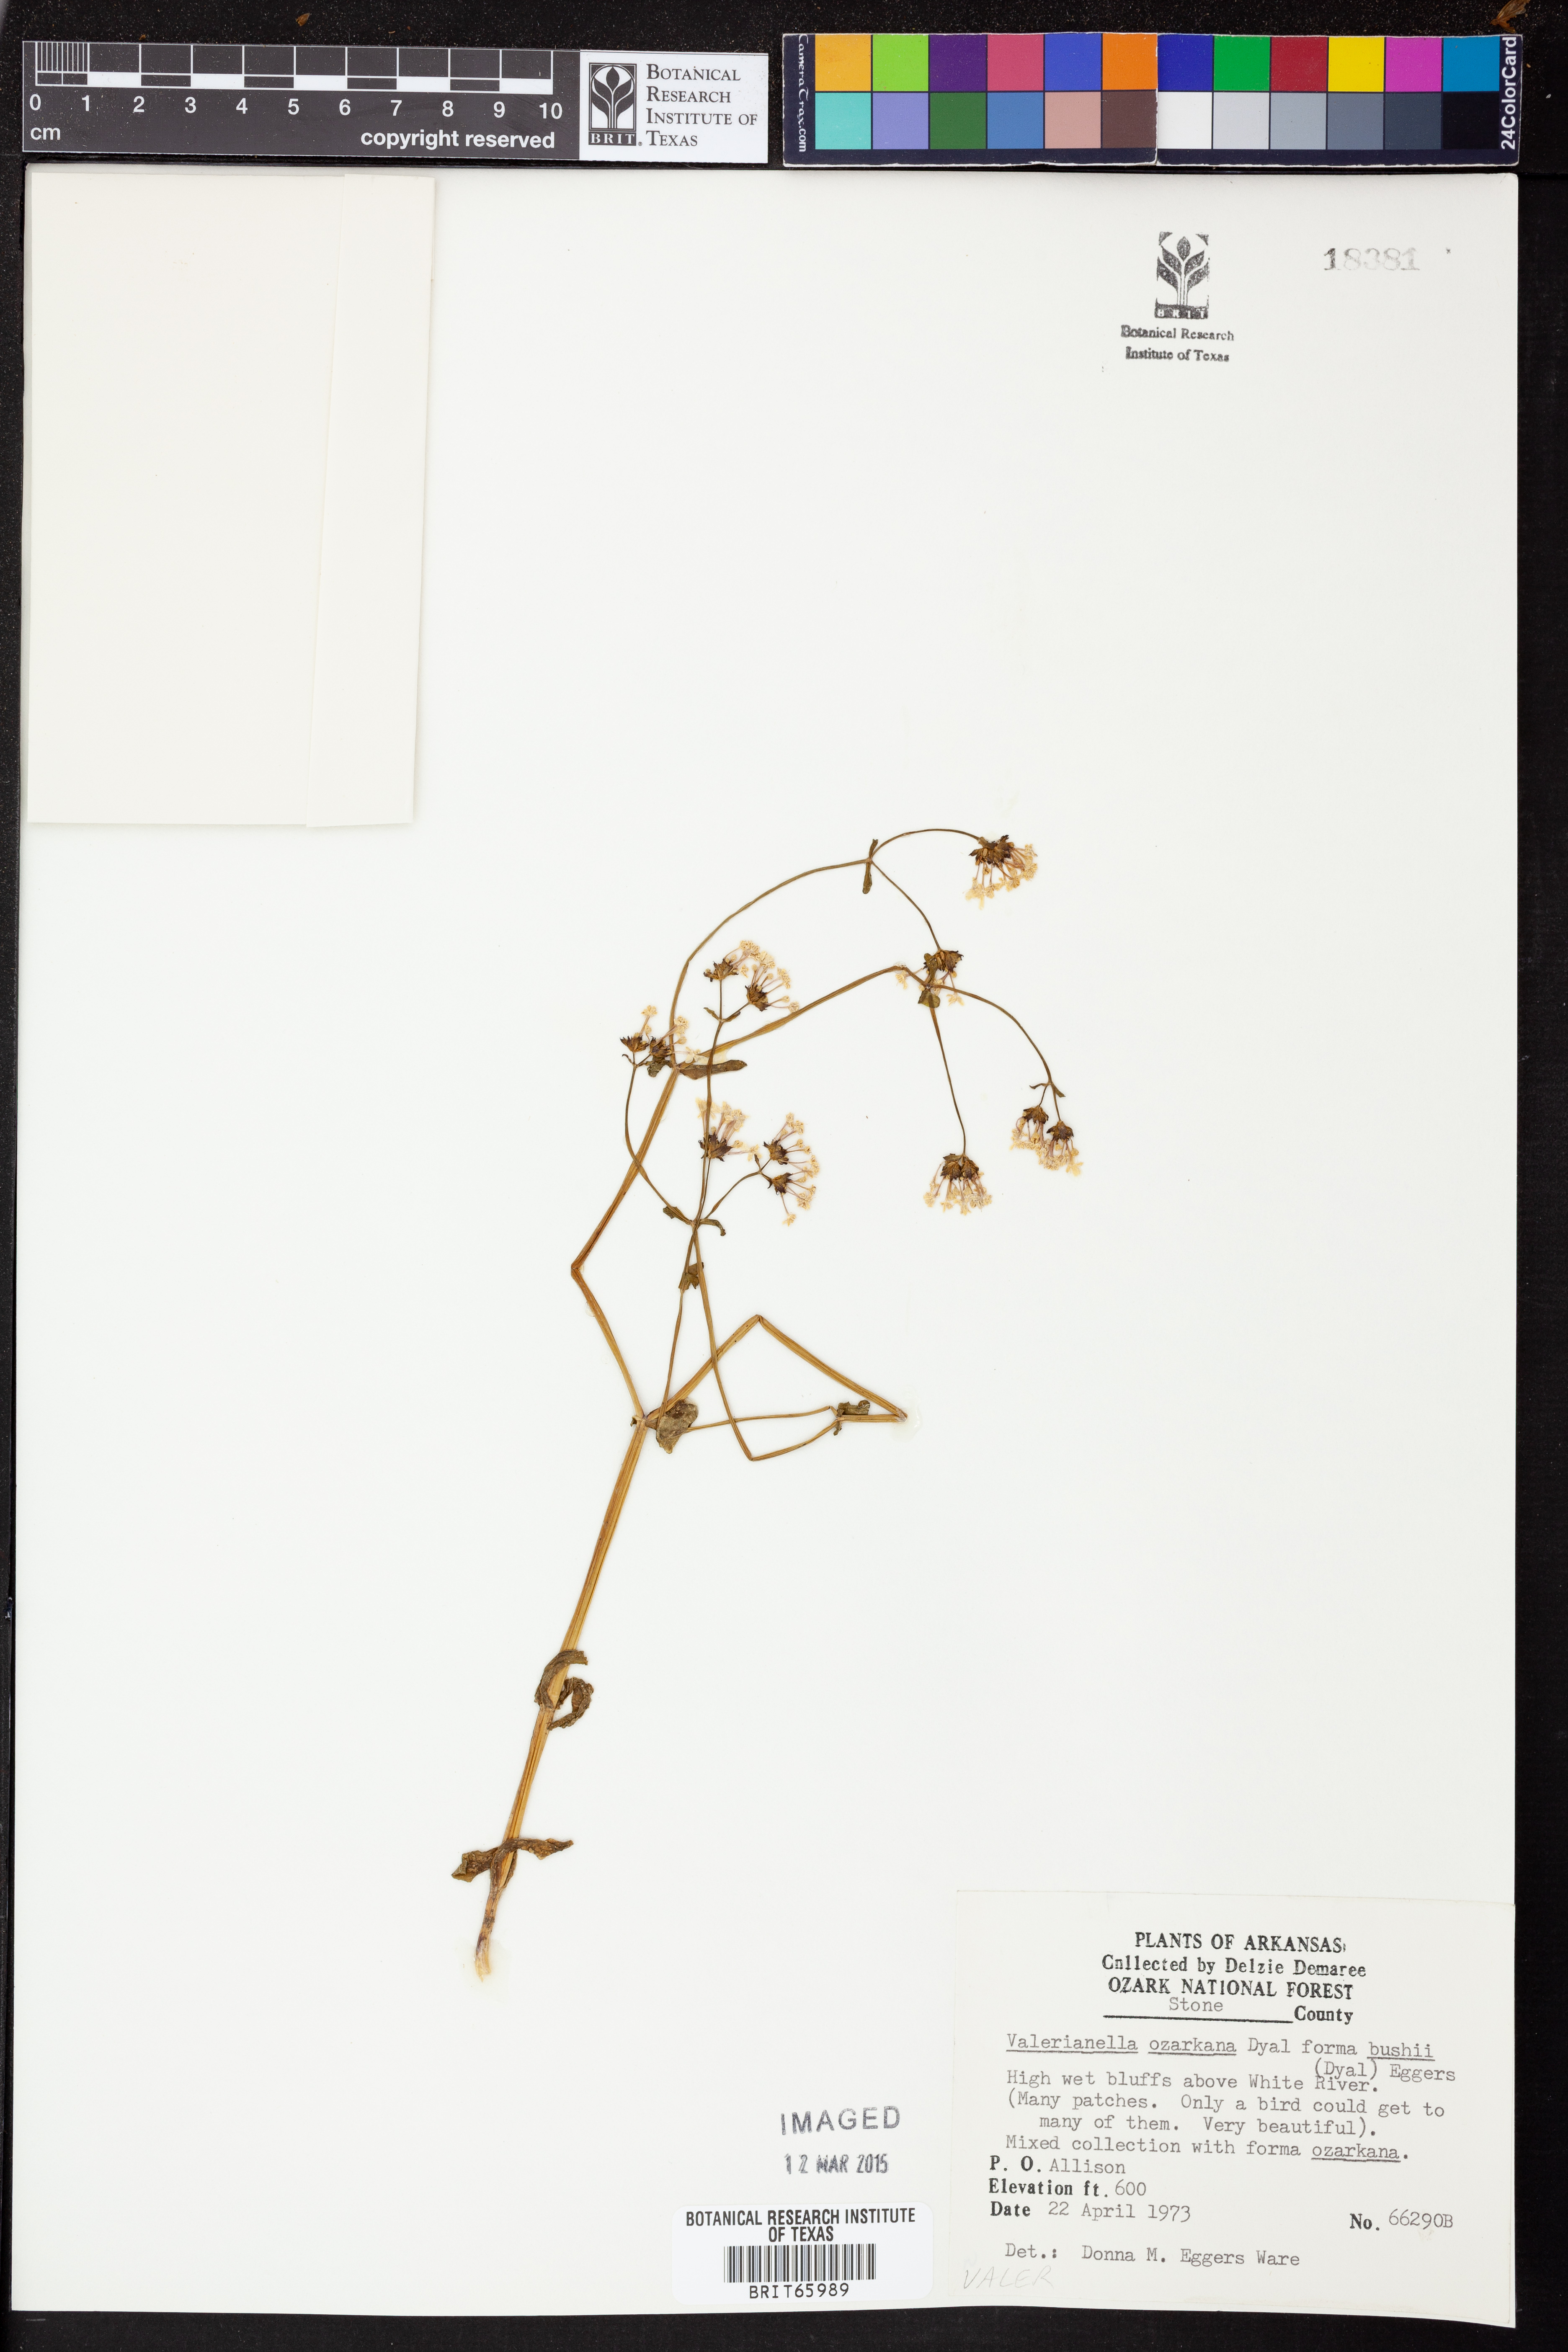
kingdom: Plantae
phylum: Tracheophyta
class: Magnoliopsida
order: Dipsacales
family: Caprifoliaceae
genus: Valerianella
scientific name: Valerianella ozarkana
